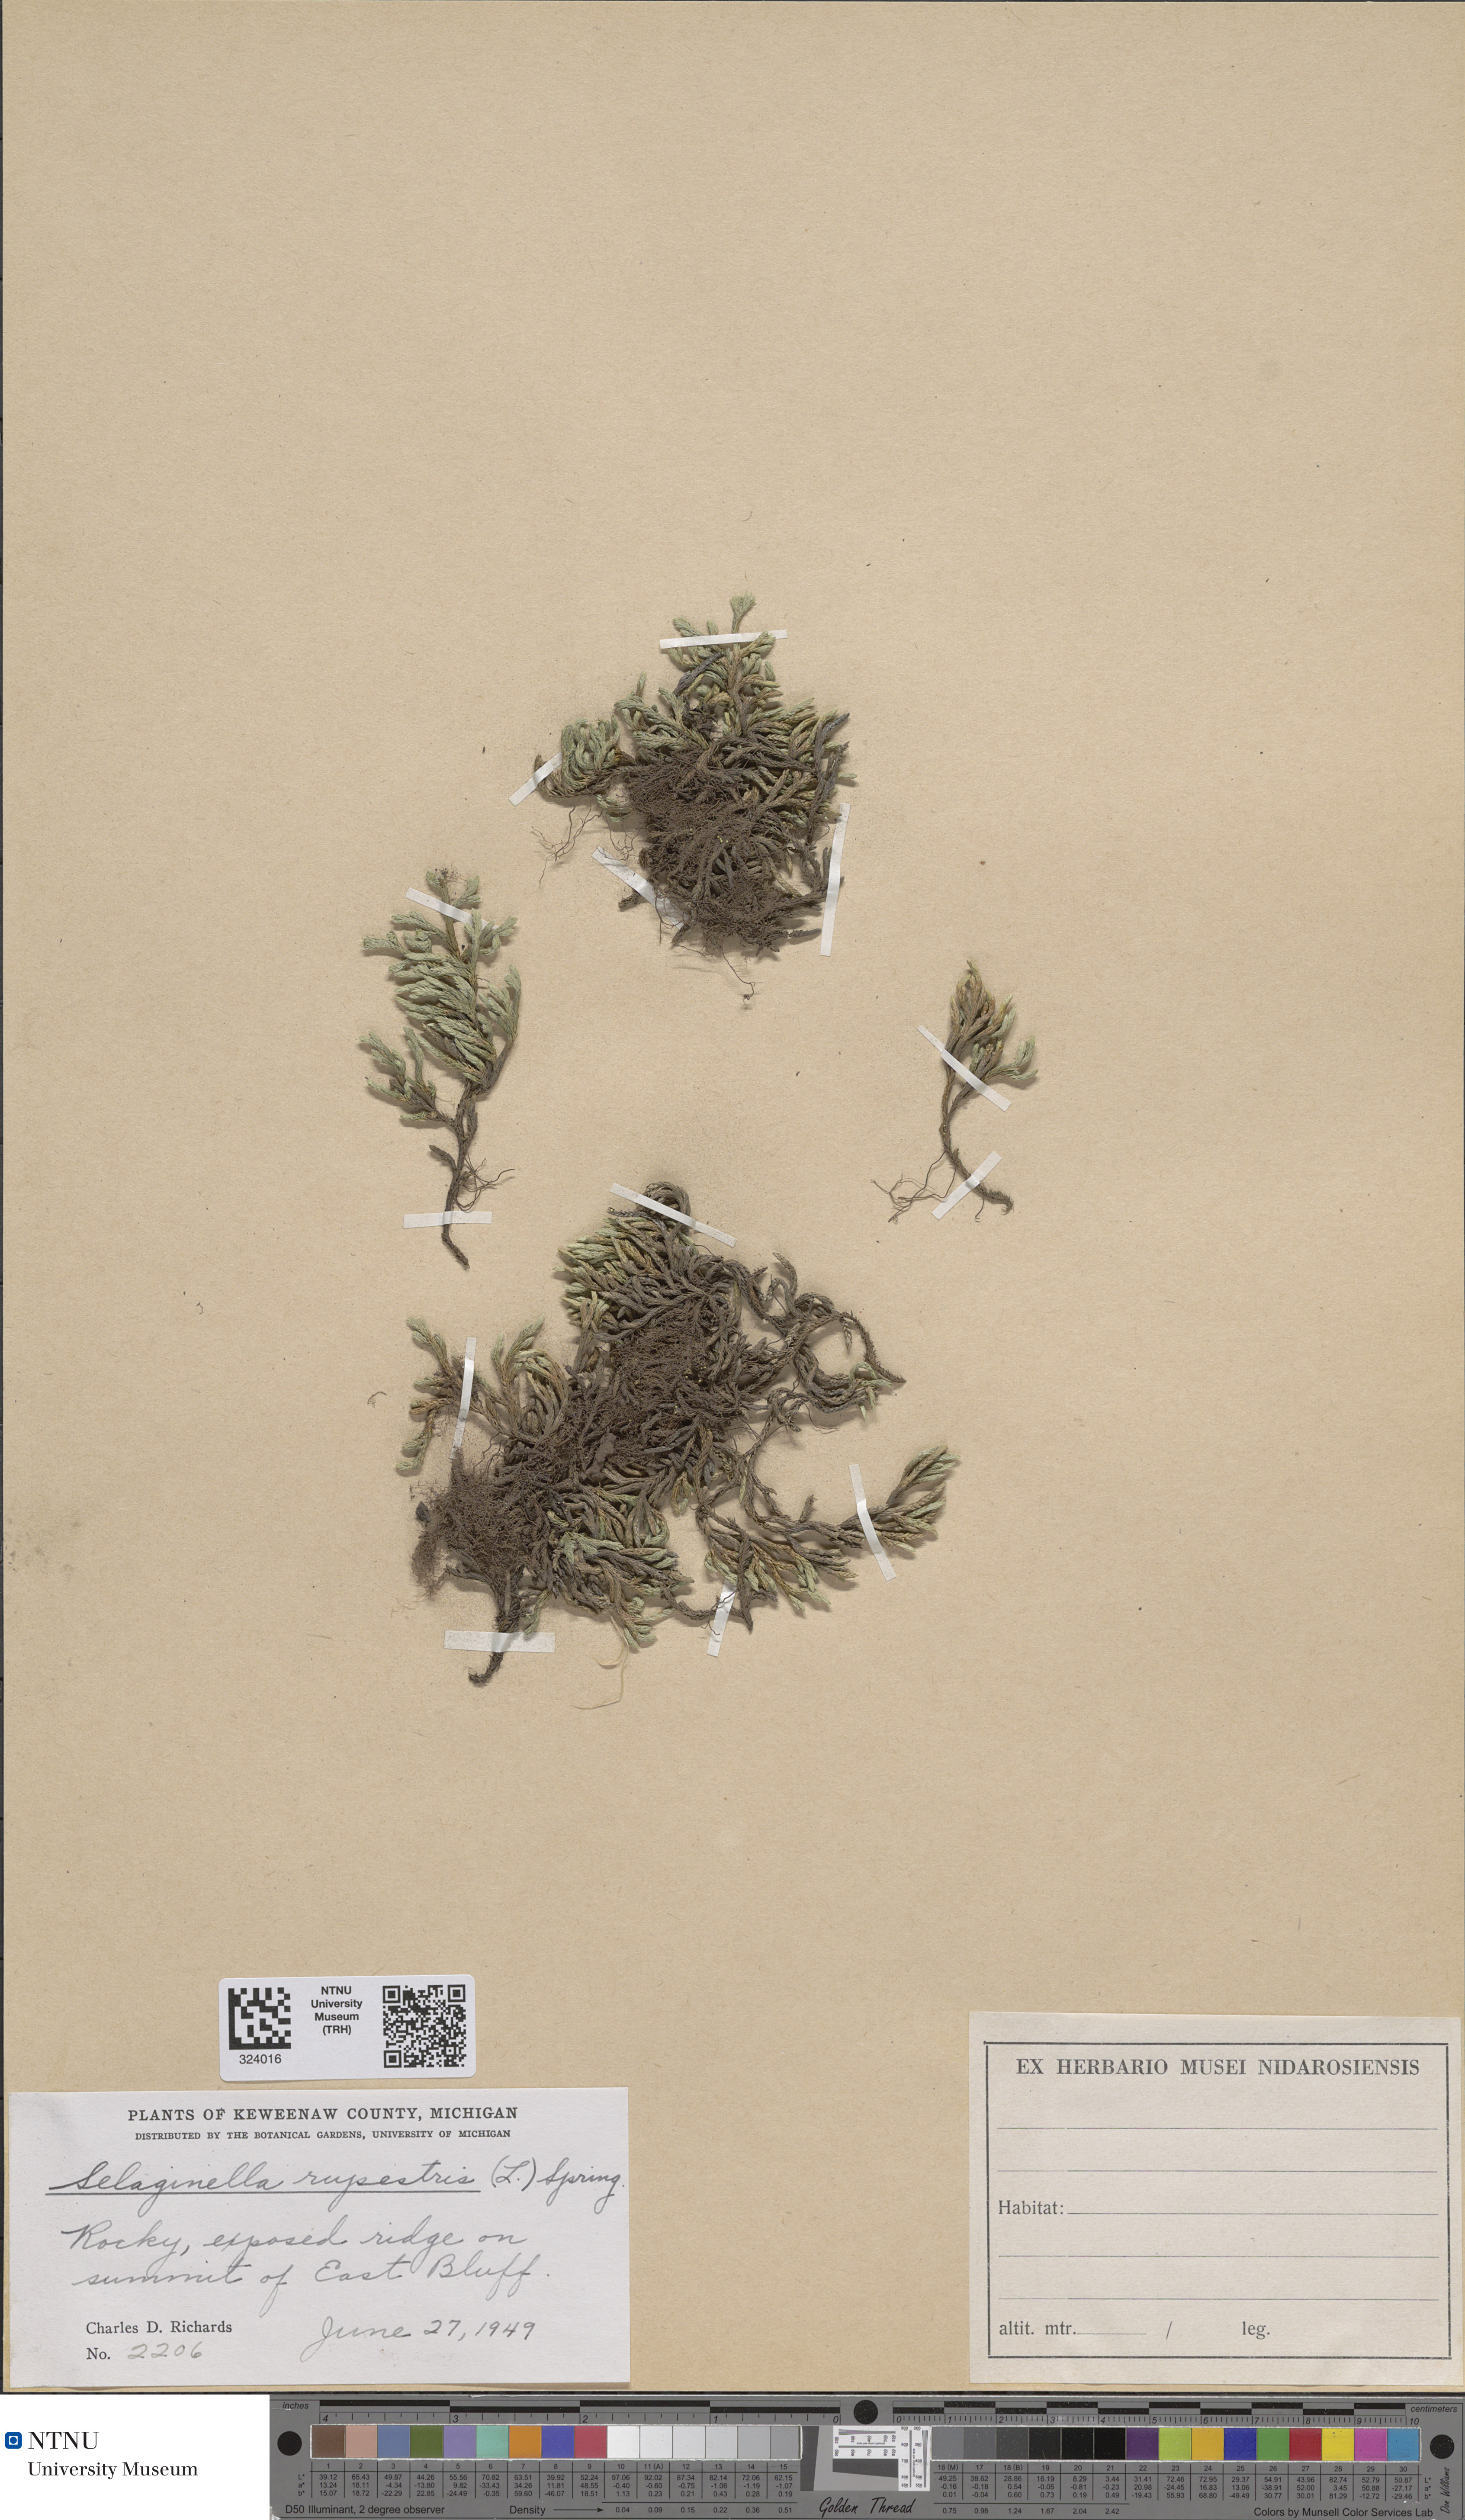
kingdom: Plantae
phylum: Tracheophyta
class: Lycopodiopsida
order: Selaginellales
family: Selaginellaceae
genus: Selaginella
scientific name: Selaginella sellowii
